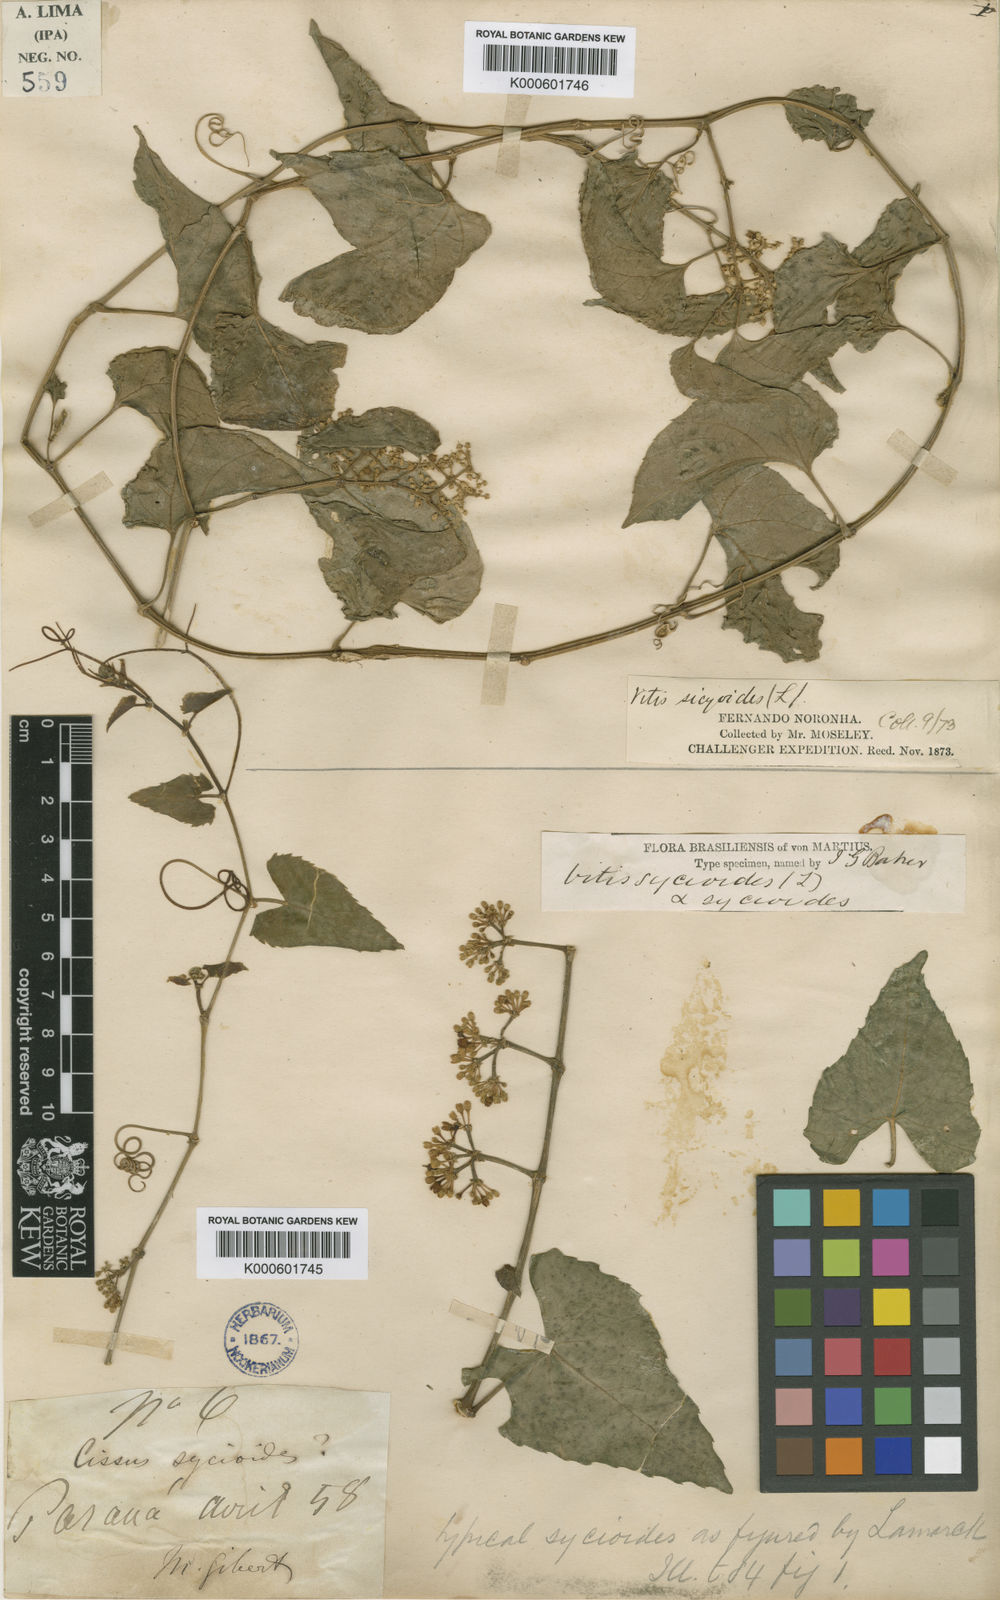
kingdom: Plantae
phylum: Tracheophyta
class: Magnoliopsida
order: Vitales
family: Vitaceae
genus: Cissus
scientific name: Cissus verticillata
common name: Princess vine
